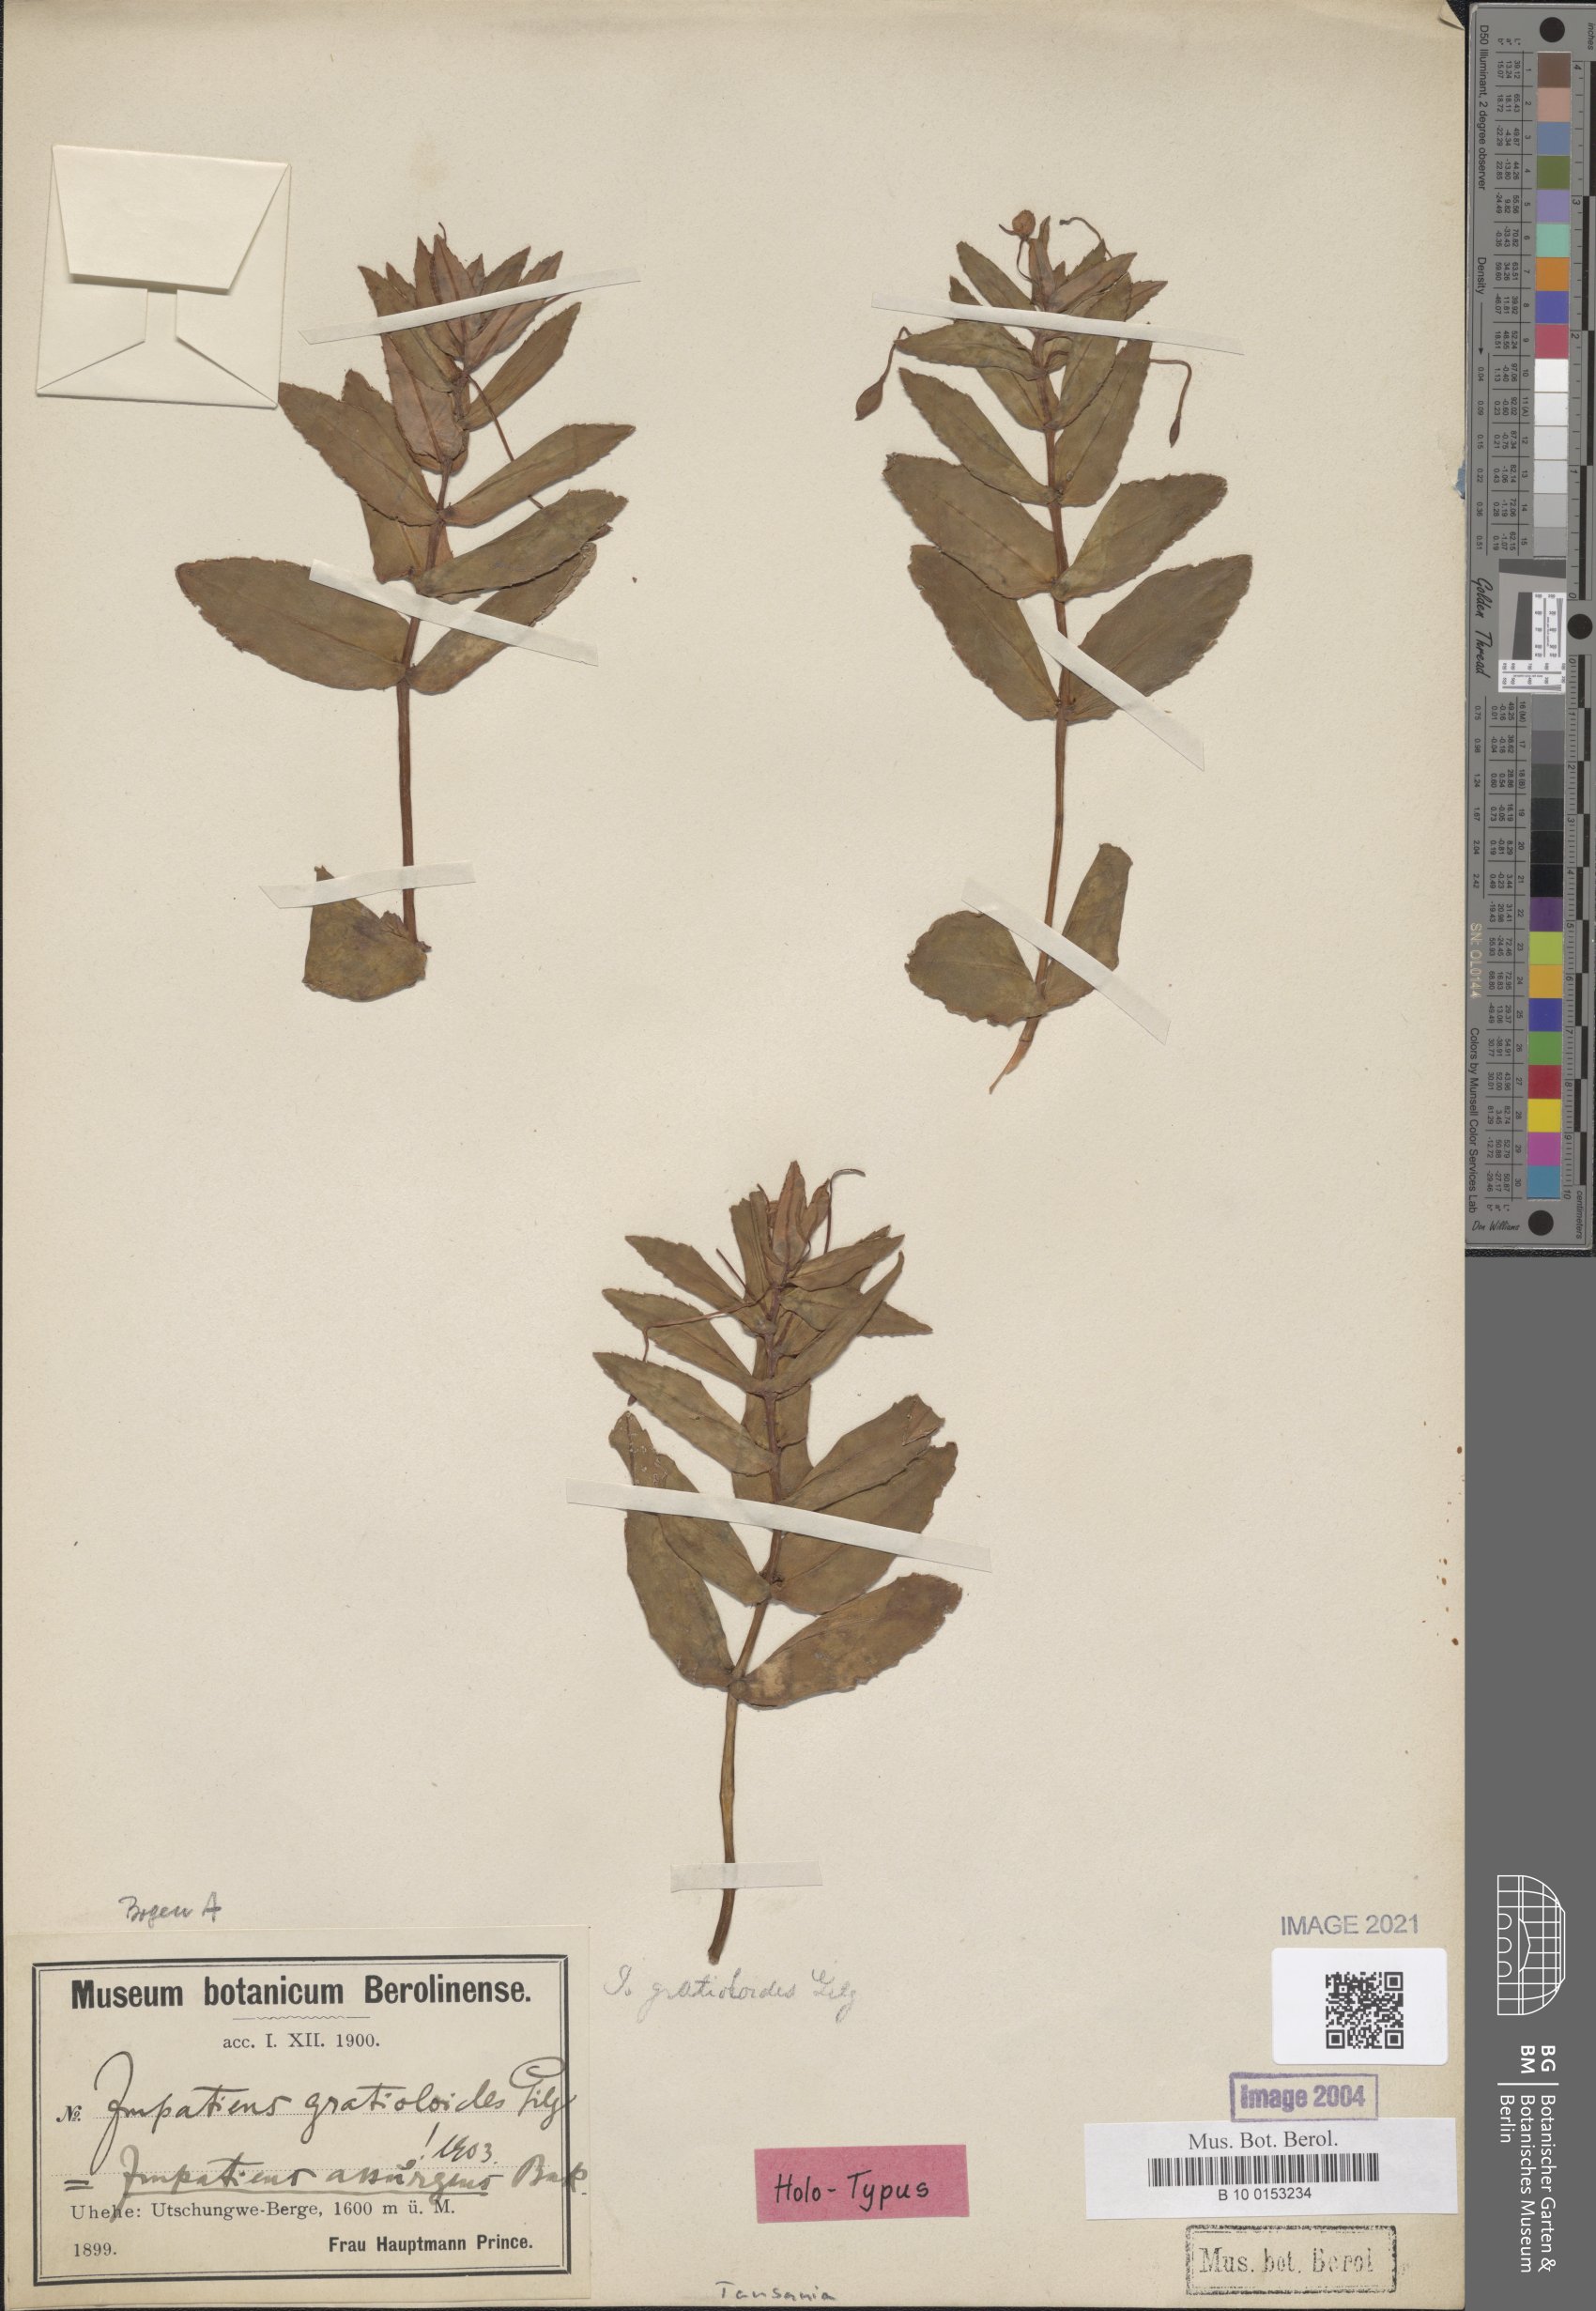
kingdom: Plantae
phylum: Tracheophyta
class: Magnoliopsida
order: Ericales
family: Balsaminaceae
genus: Impatiens
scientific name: Impatiens assurgens
